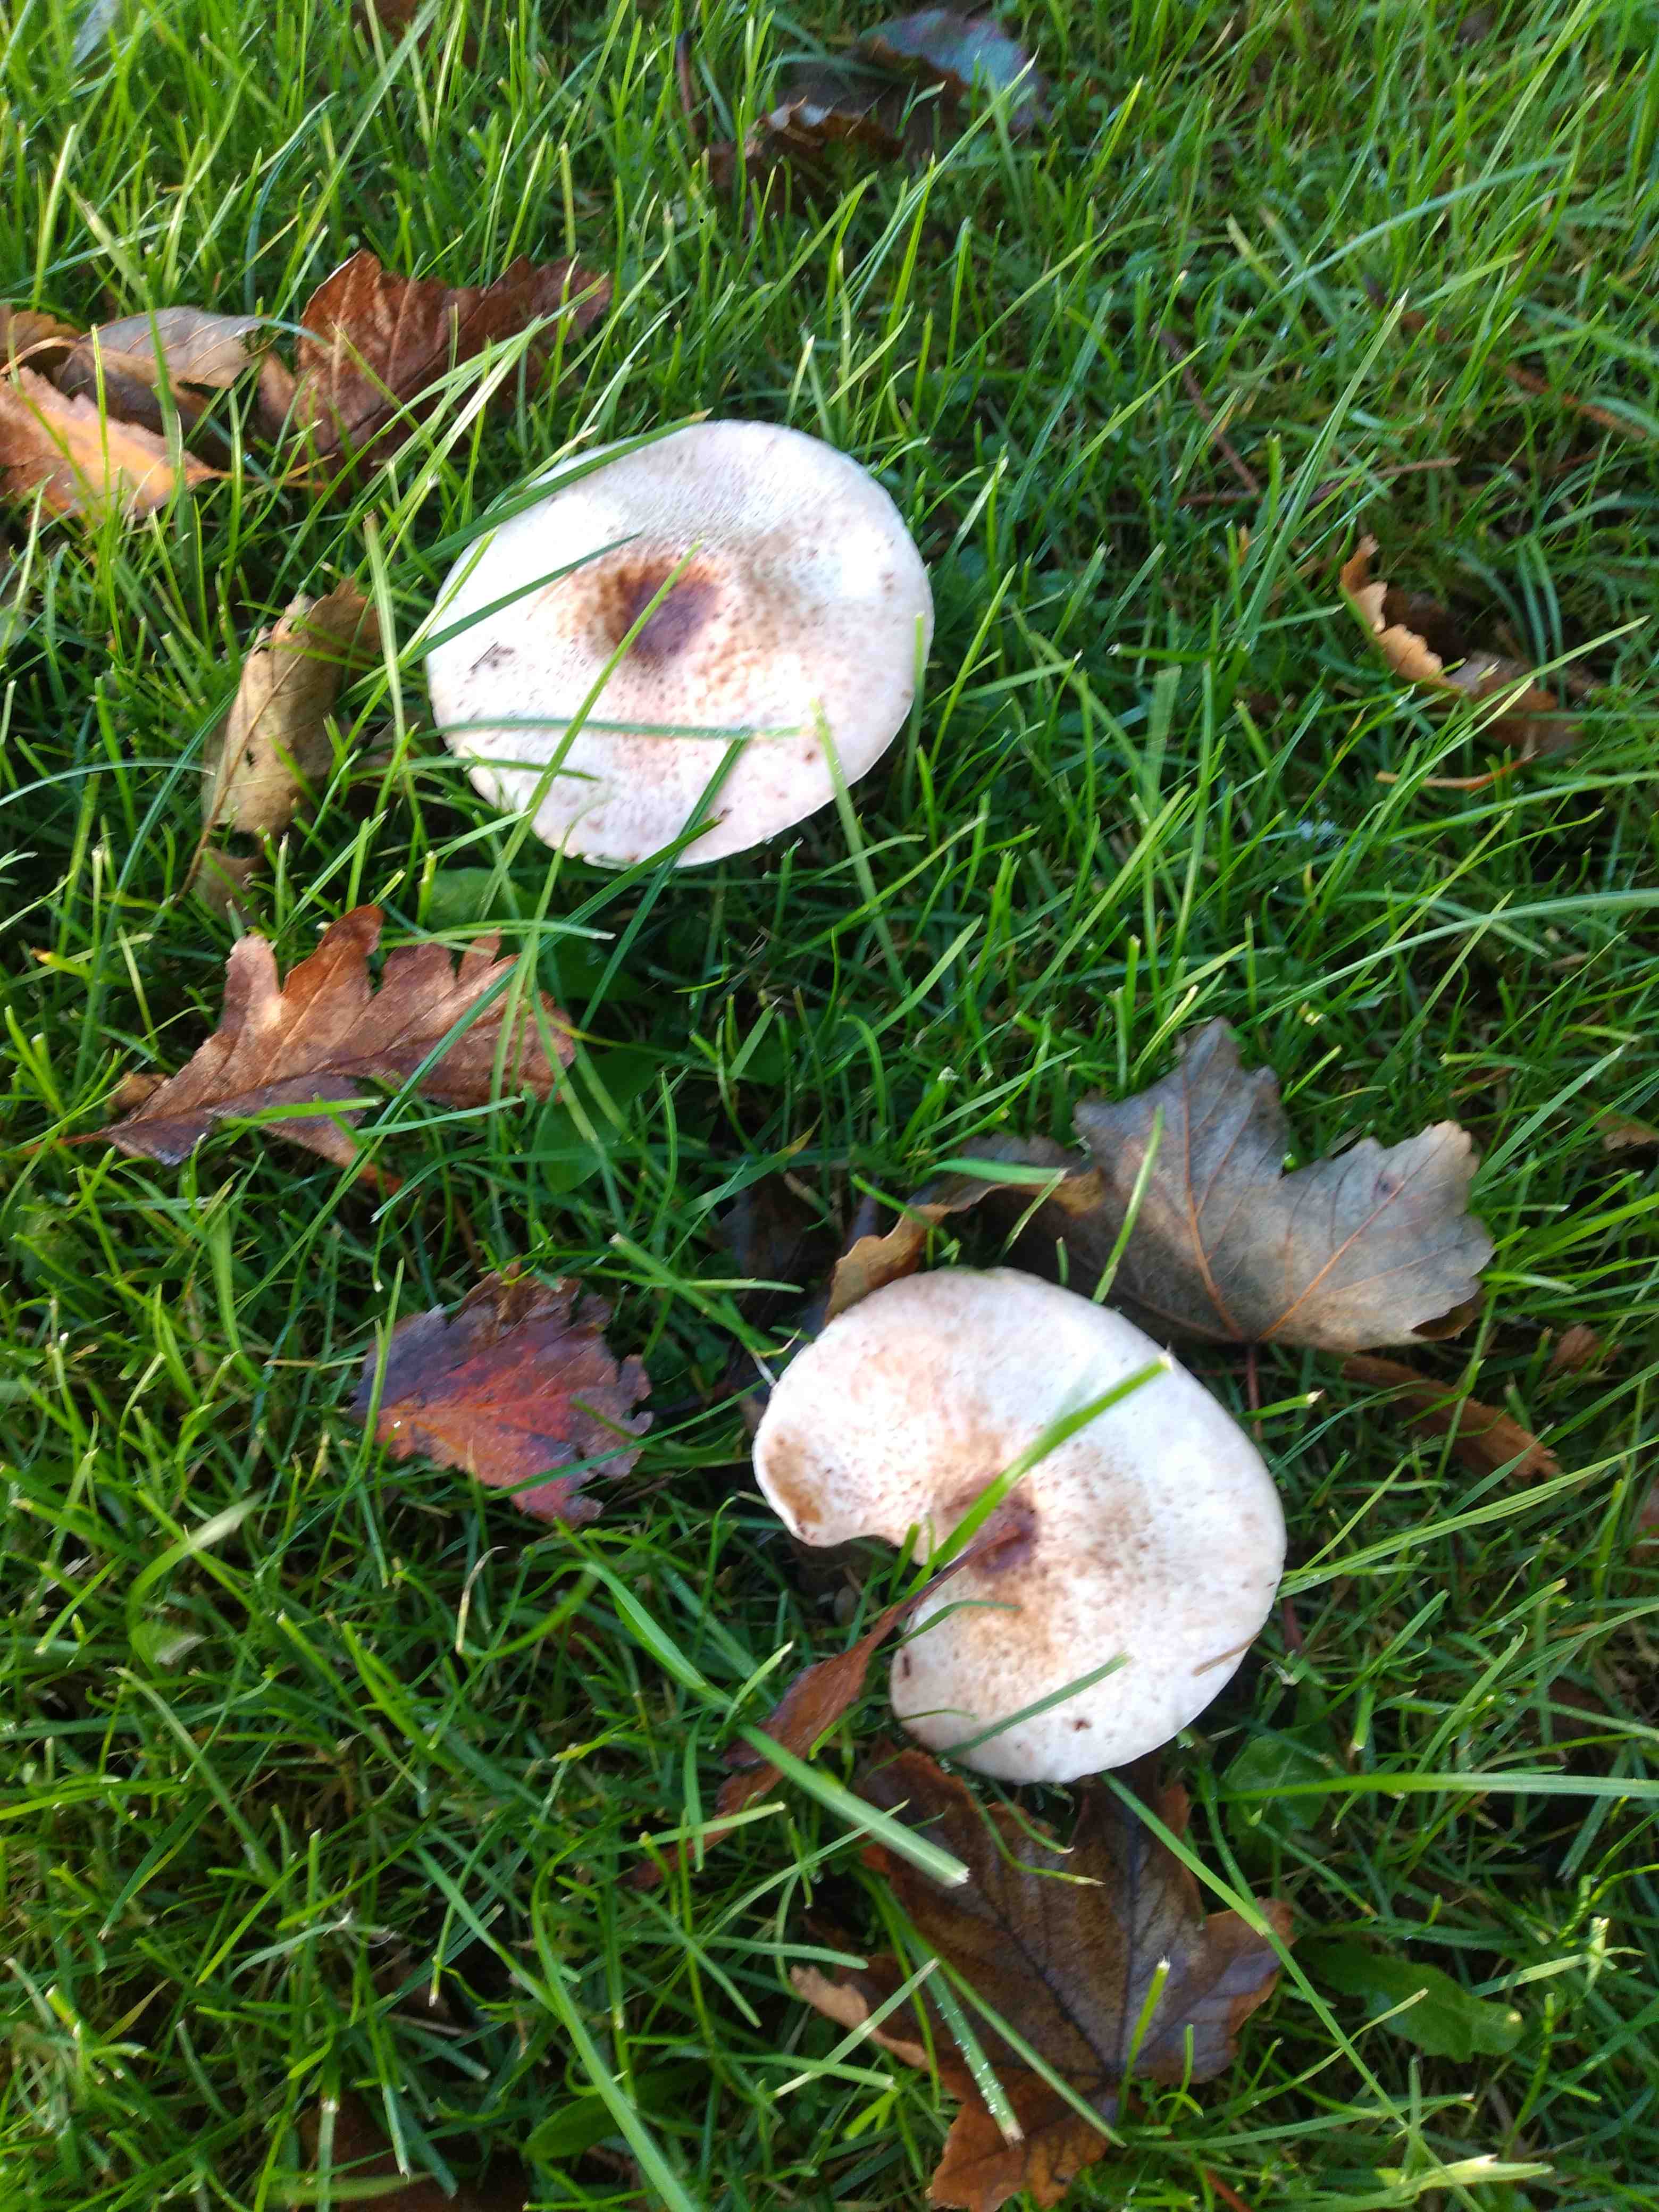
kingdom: Fungi
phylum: Basidiomycota
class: Agaricomycetes
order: Agaricales
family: Agaricaceae
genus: Agaricus
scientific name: Agaricus
